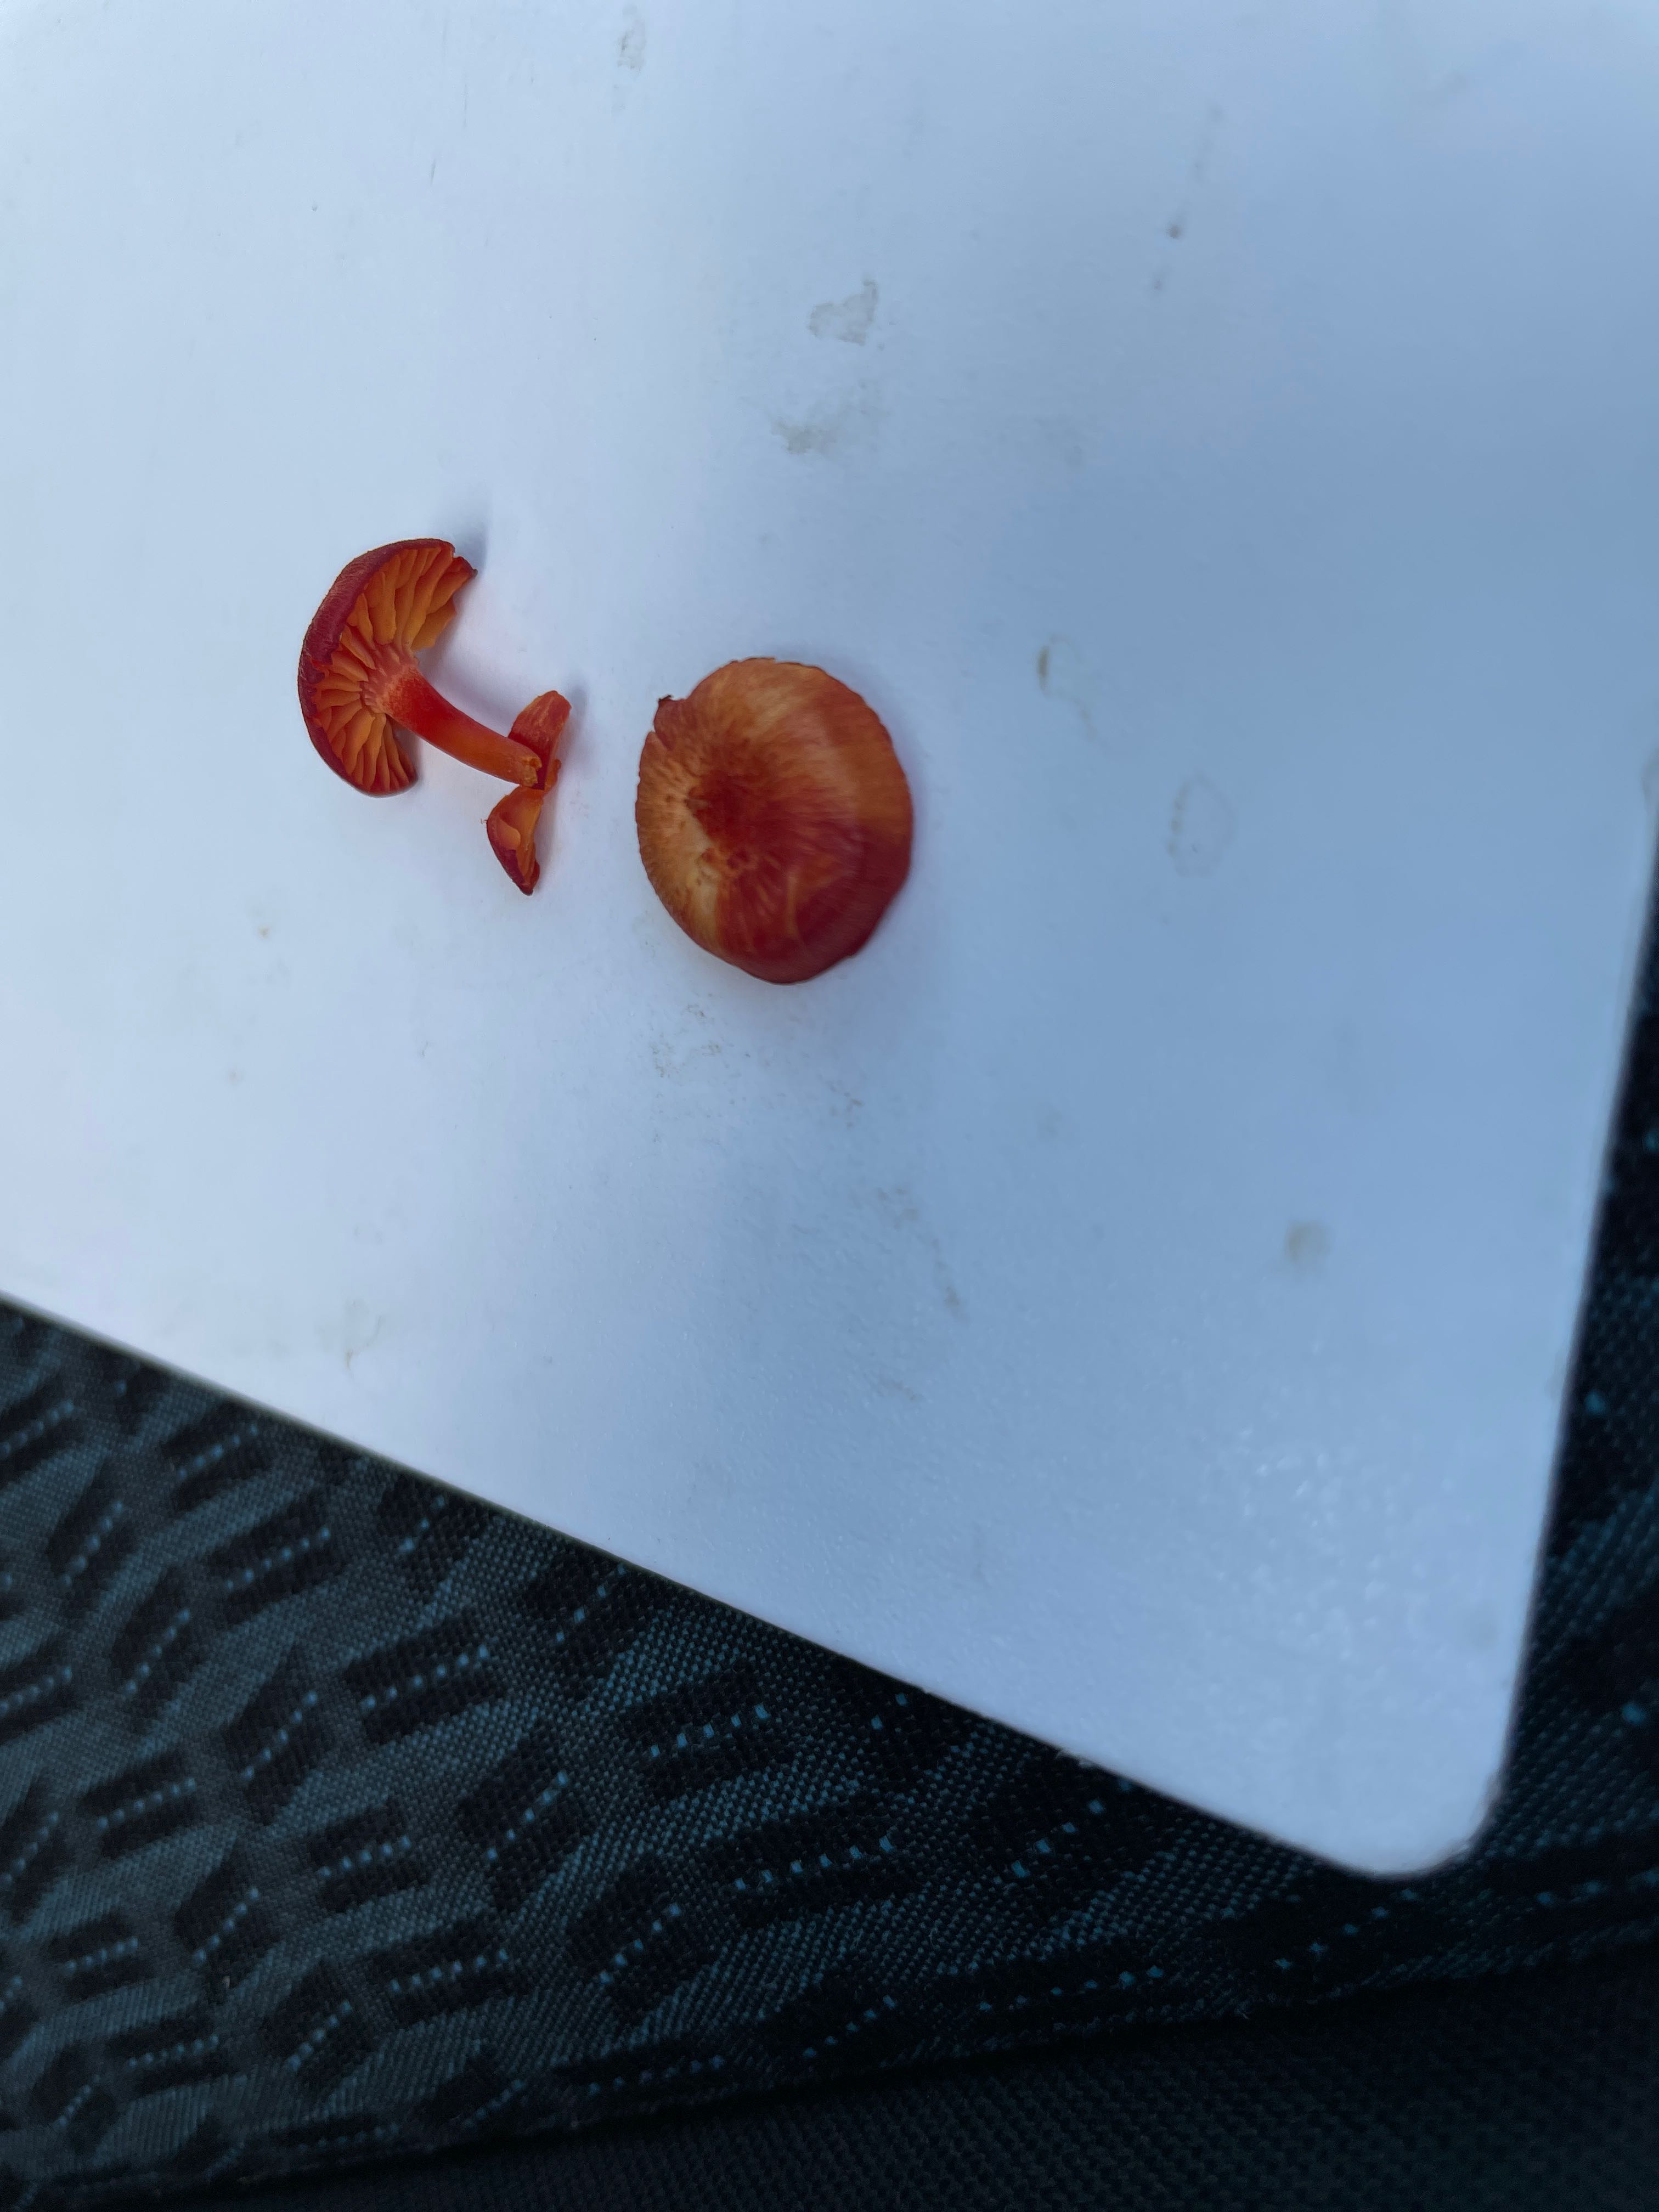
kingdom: Fungi
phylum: Basidiomycota
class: Agaricomycetes
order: Agaricales
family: Hygrophoraceae
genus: Hygrocybe
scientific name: Hygrocybe helobia
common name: hvidløgs-vokshat
